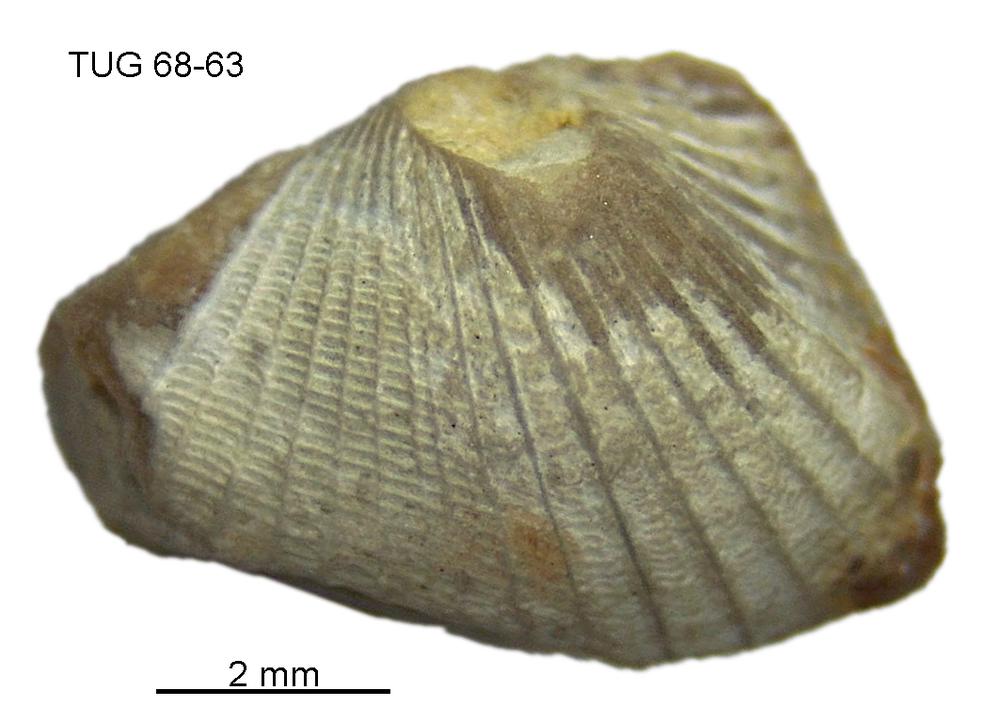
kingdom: Animalia
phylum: Mollusca
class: Rostroconchia
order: Conocardiida
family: Bransoniidae
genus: Mulceodens
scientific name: Mulceodens jaanussoni
